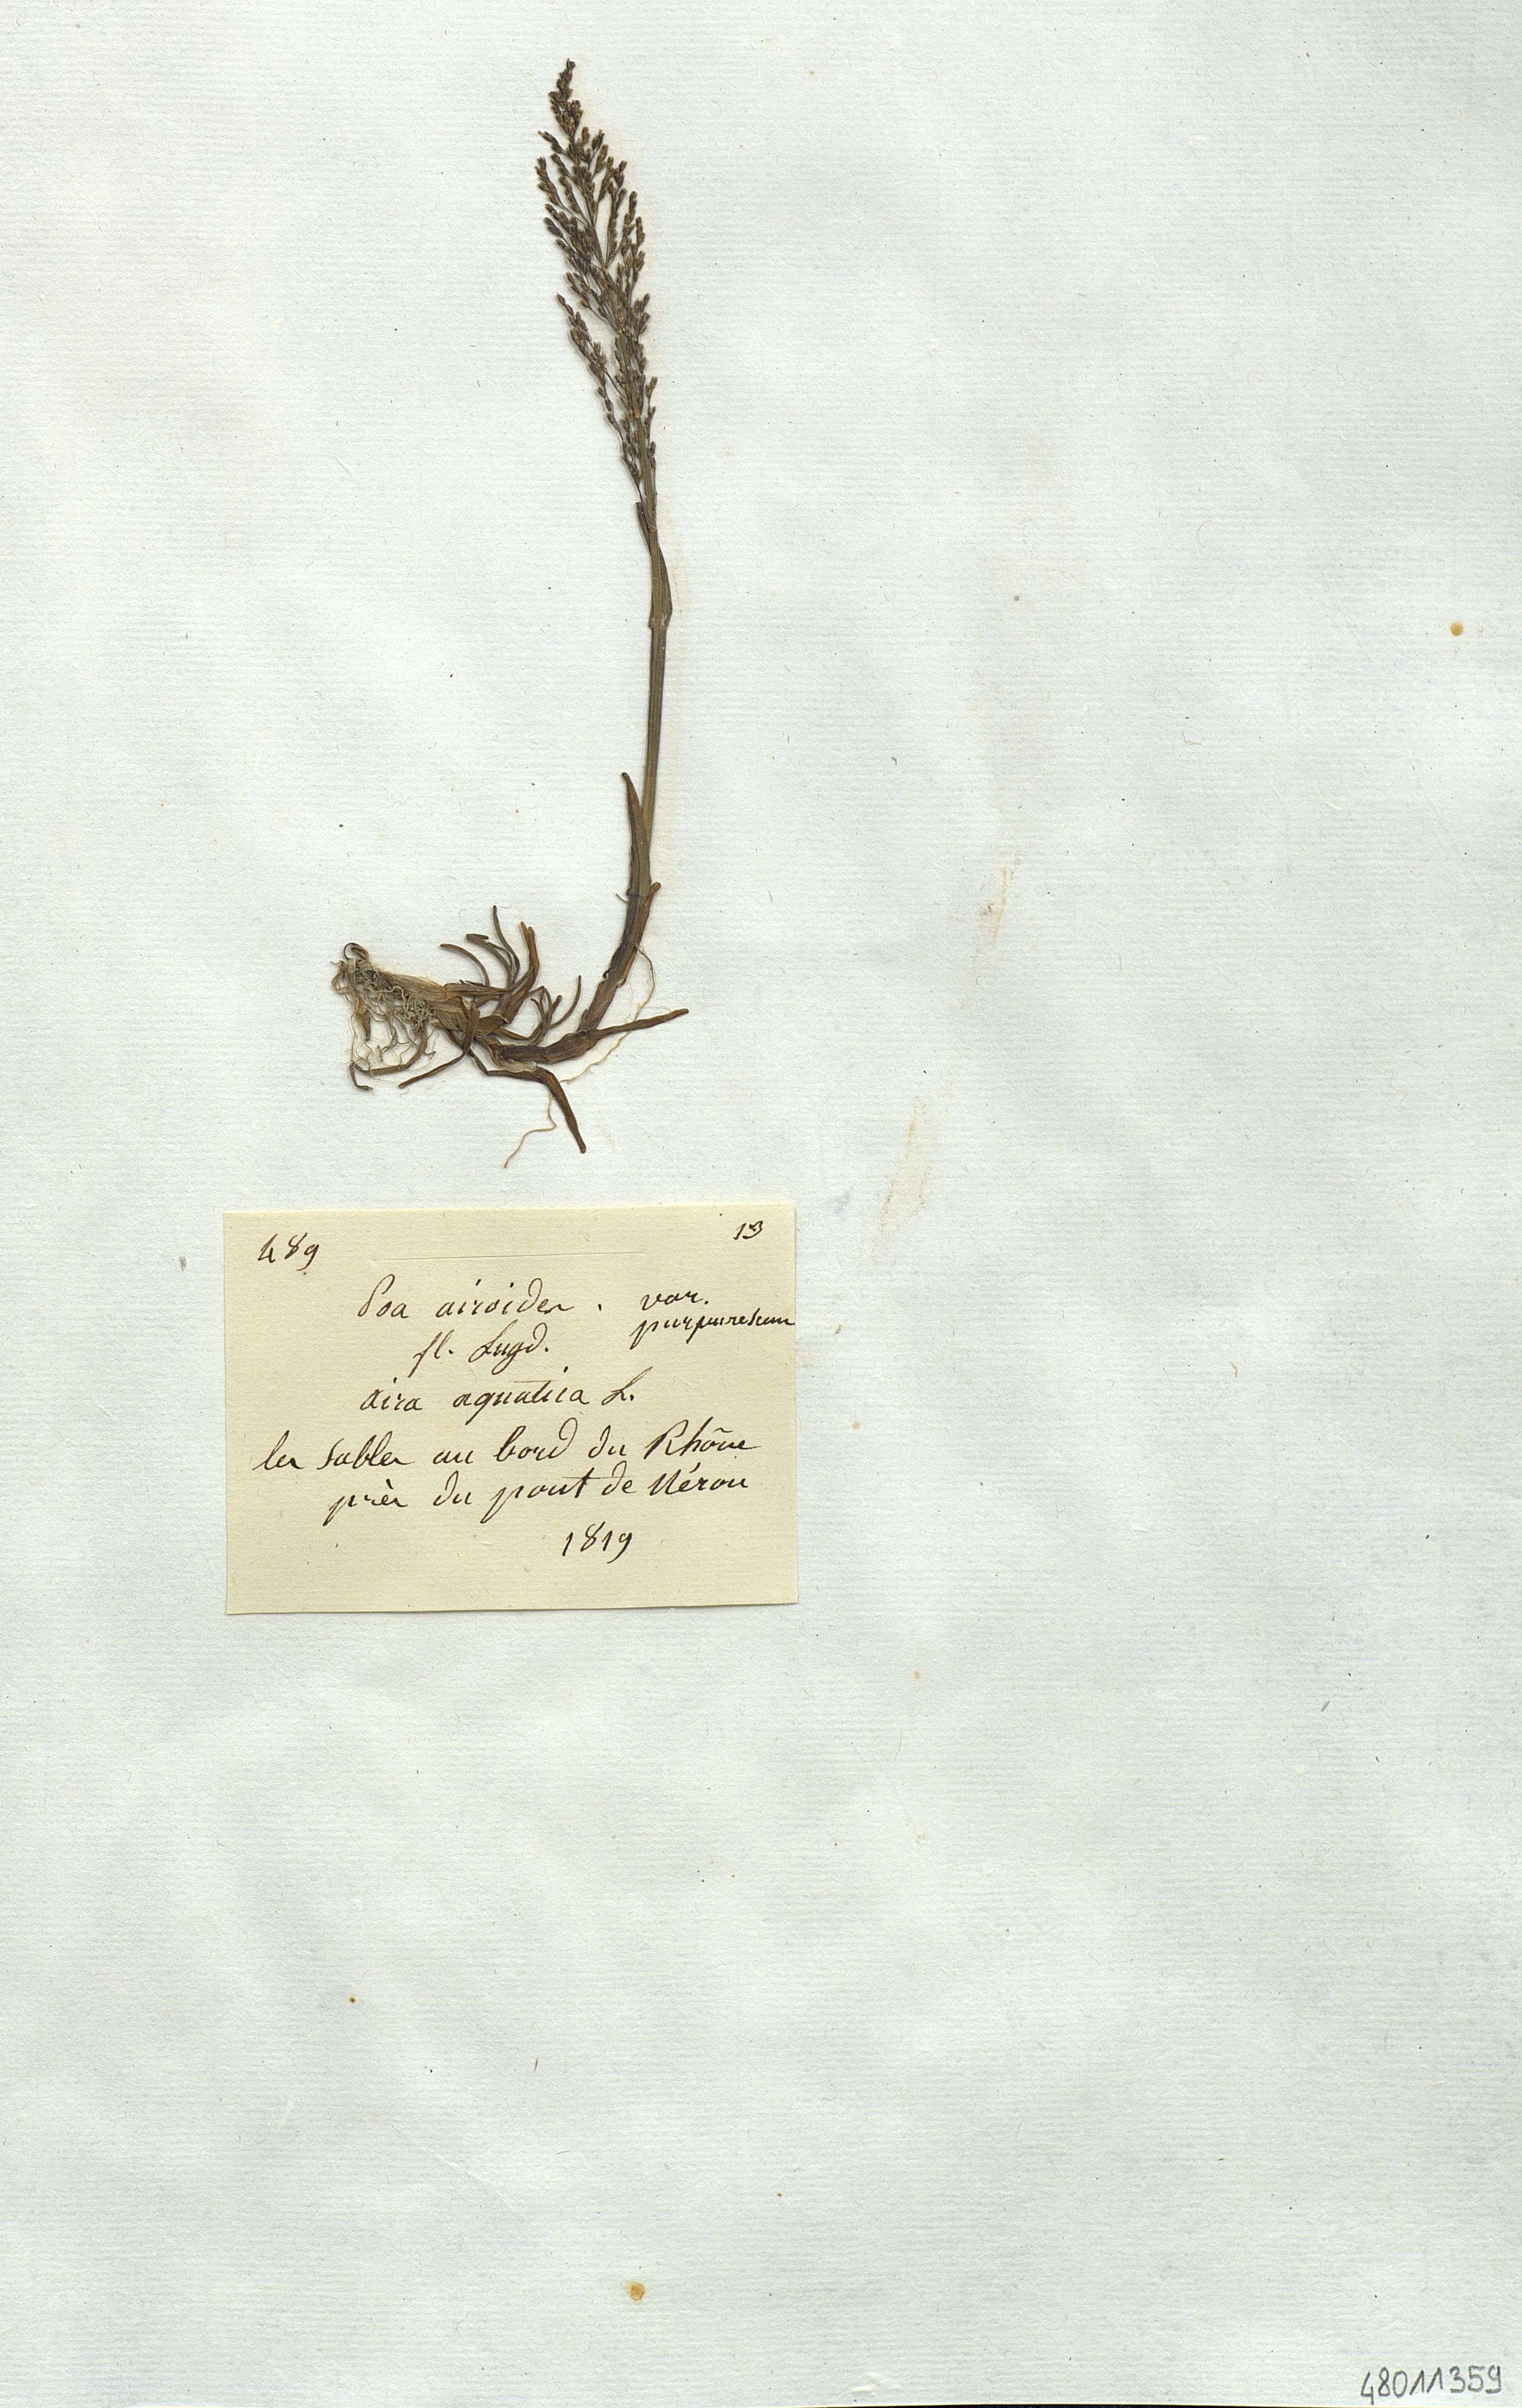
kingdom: Plantae
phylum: Tracheophyta
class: Liliopsida
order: Poales
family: Poaceae
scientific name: Poaceae
